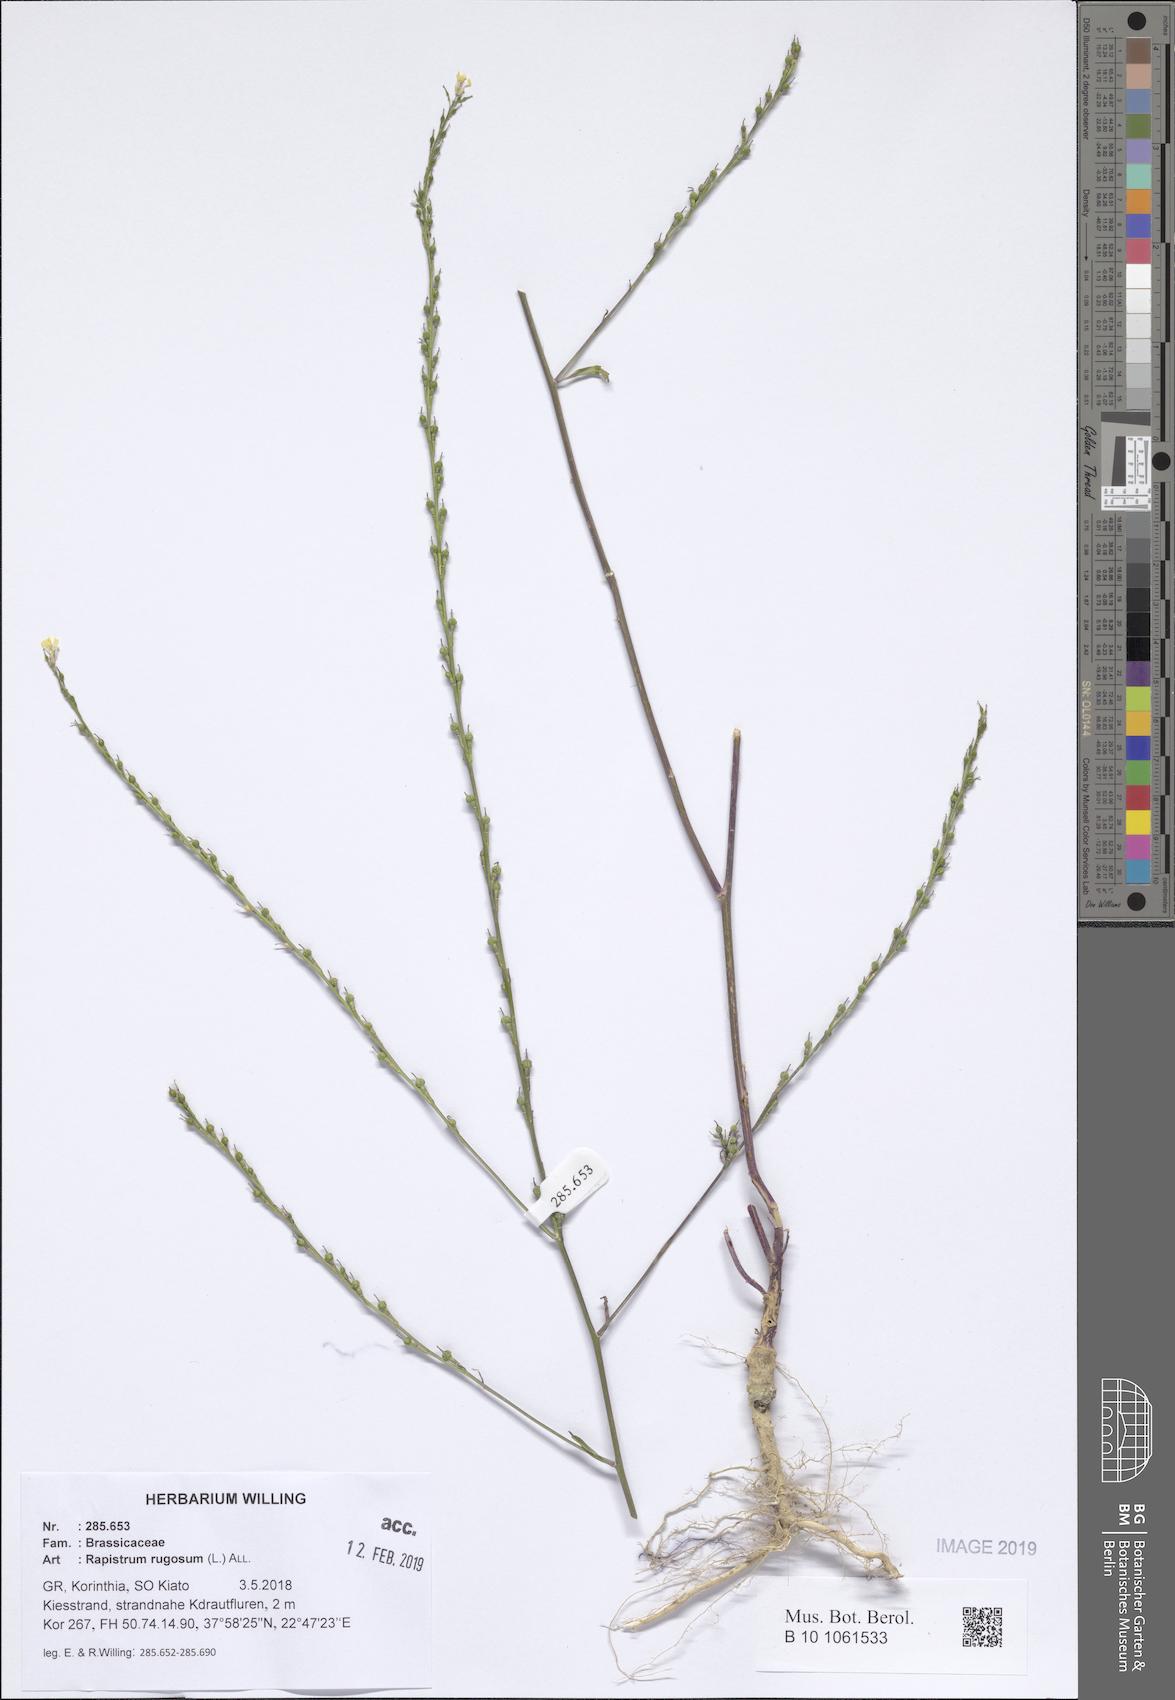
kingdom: Plantae
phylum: Tracheophyta
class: Magnoliopsida
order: Brassicales
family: Brassicaceae
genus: Rapistrum
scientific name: Rapistrum rugosum
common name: Annual bastardcabbage
